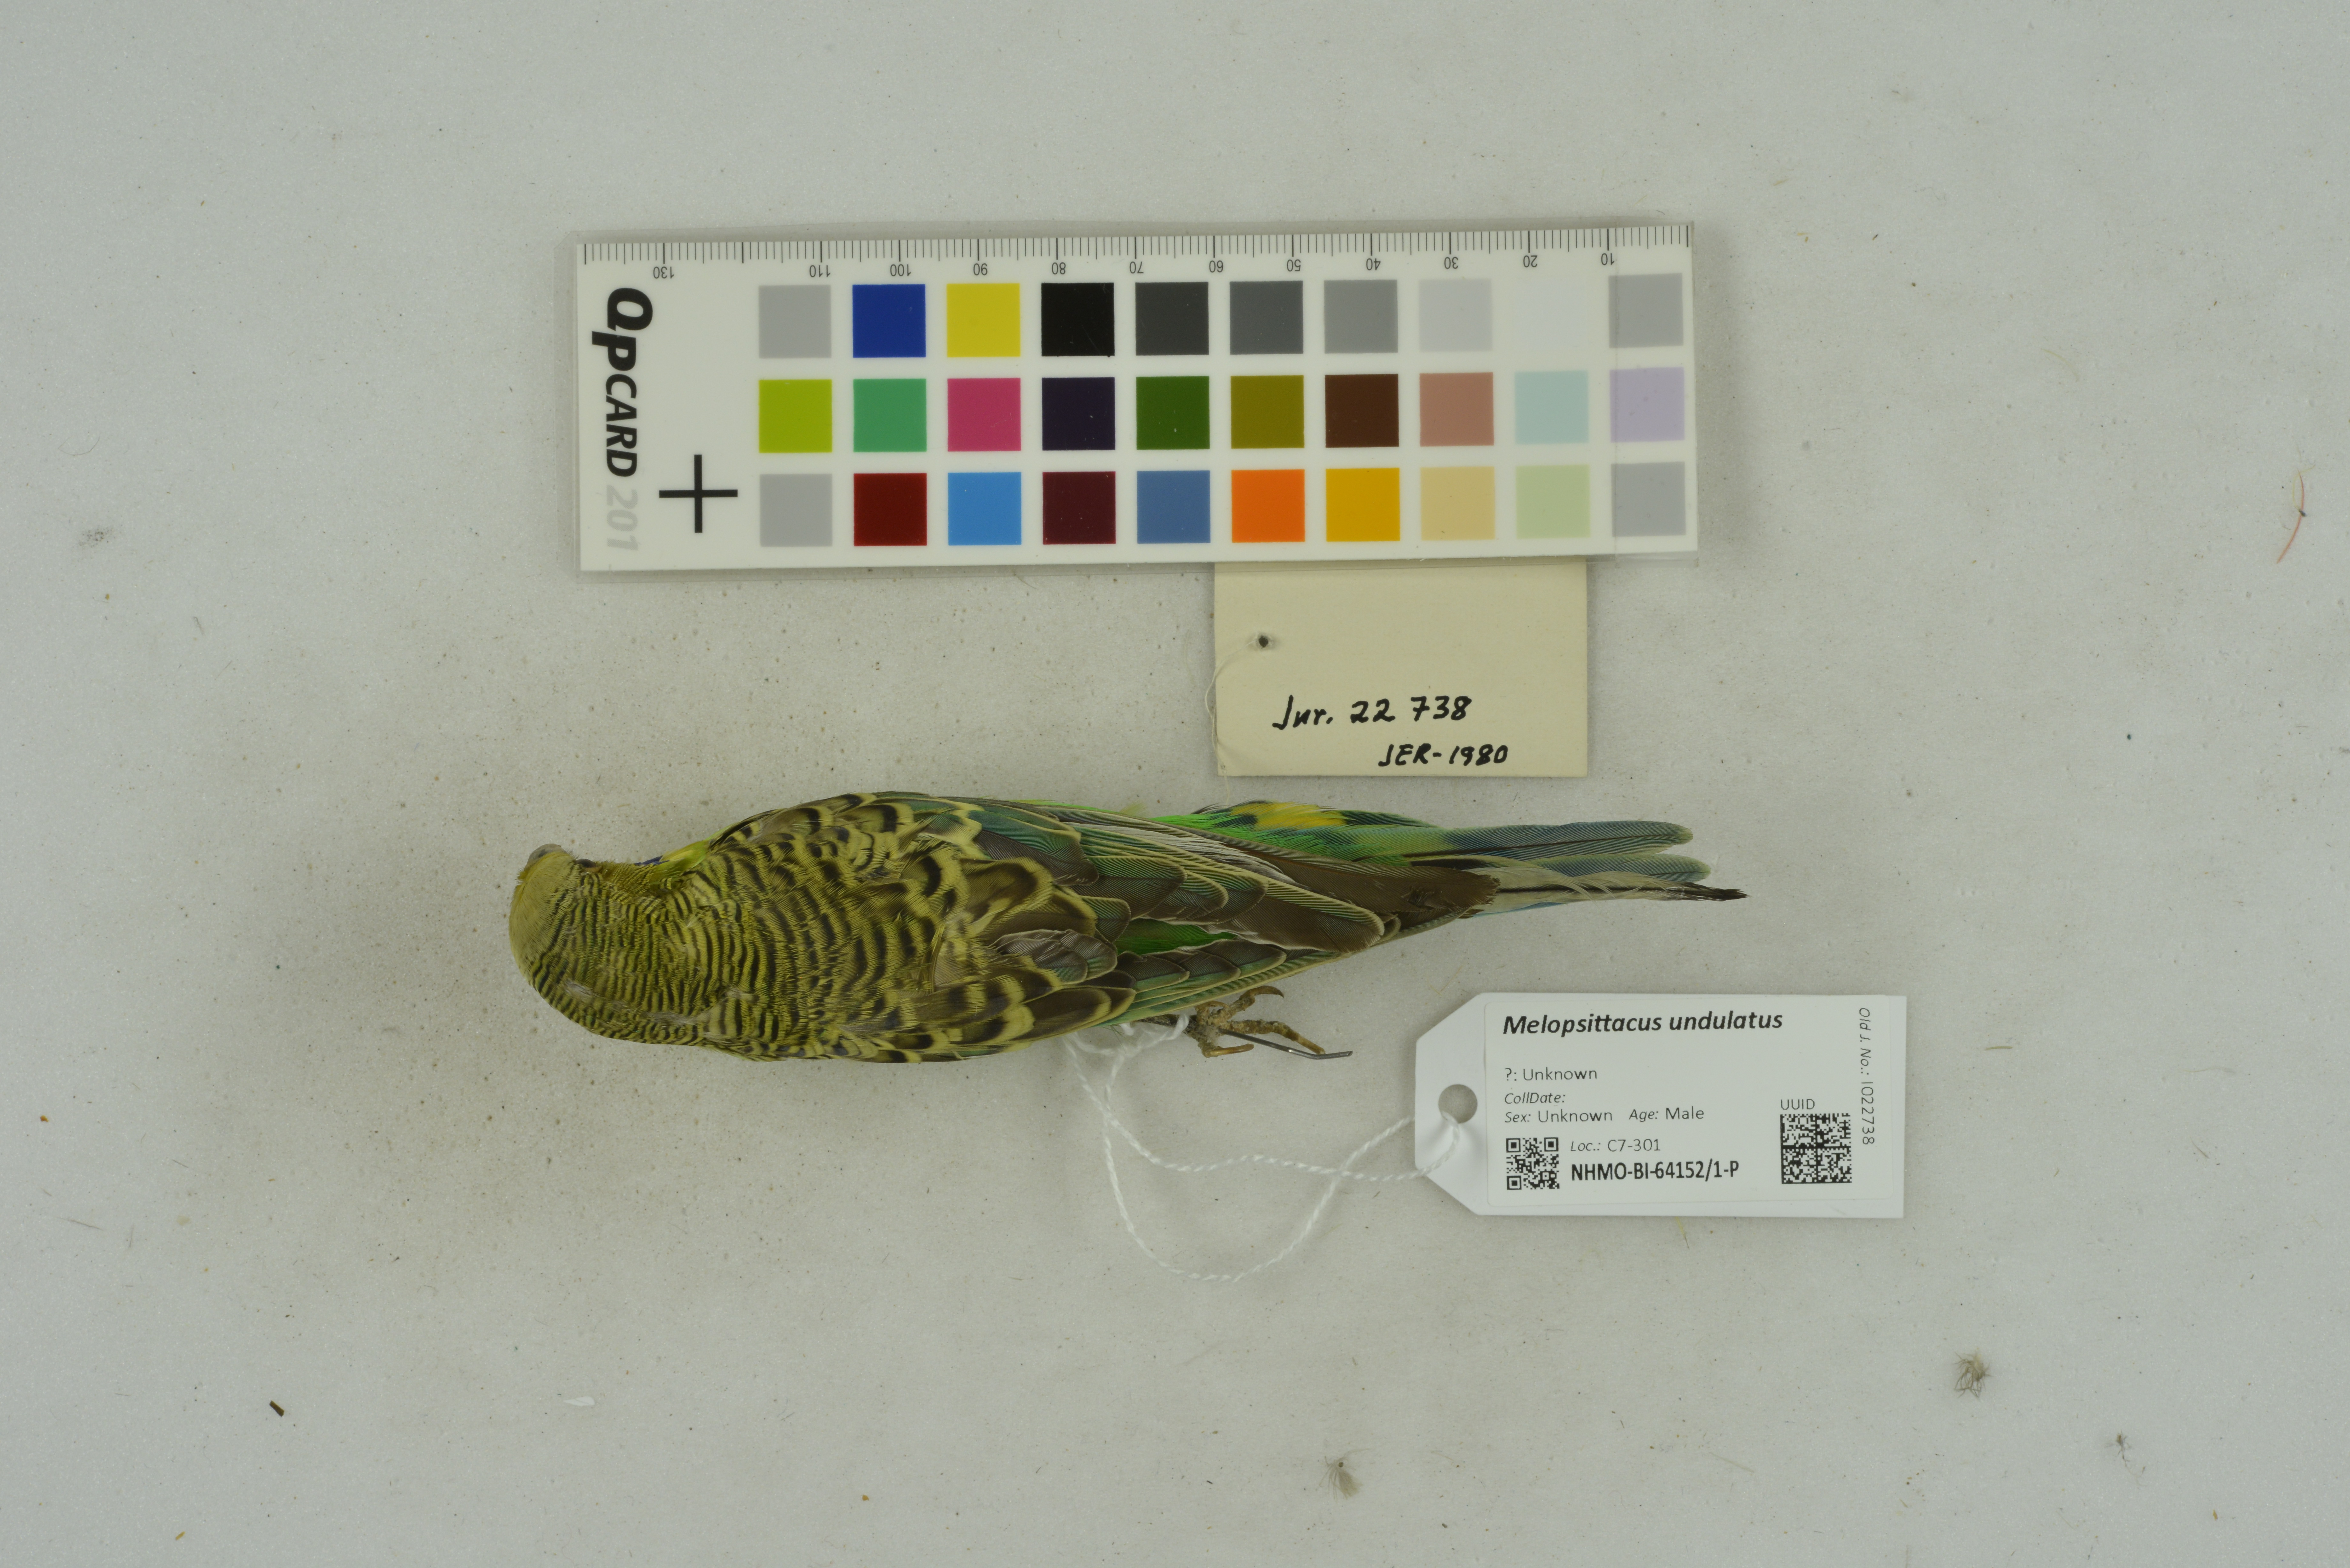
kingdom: Animalia
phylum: Chordata
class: Aves
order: Psittaciformes
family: Psittacidae
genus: Melopsittacus
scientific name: Melopsittacus undulatus
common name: Budgerigar
